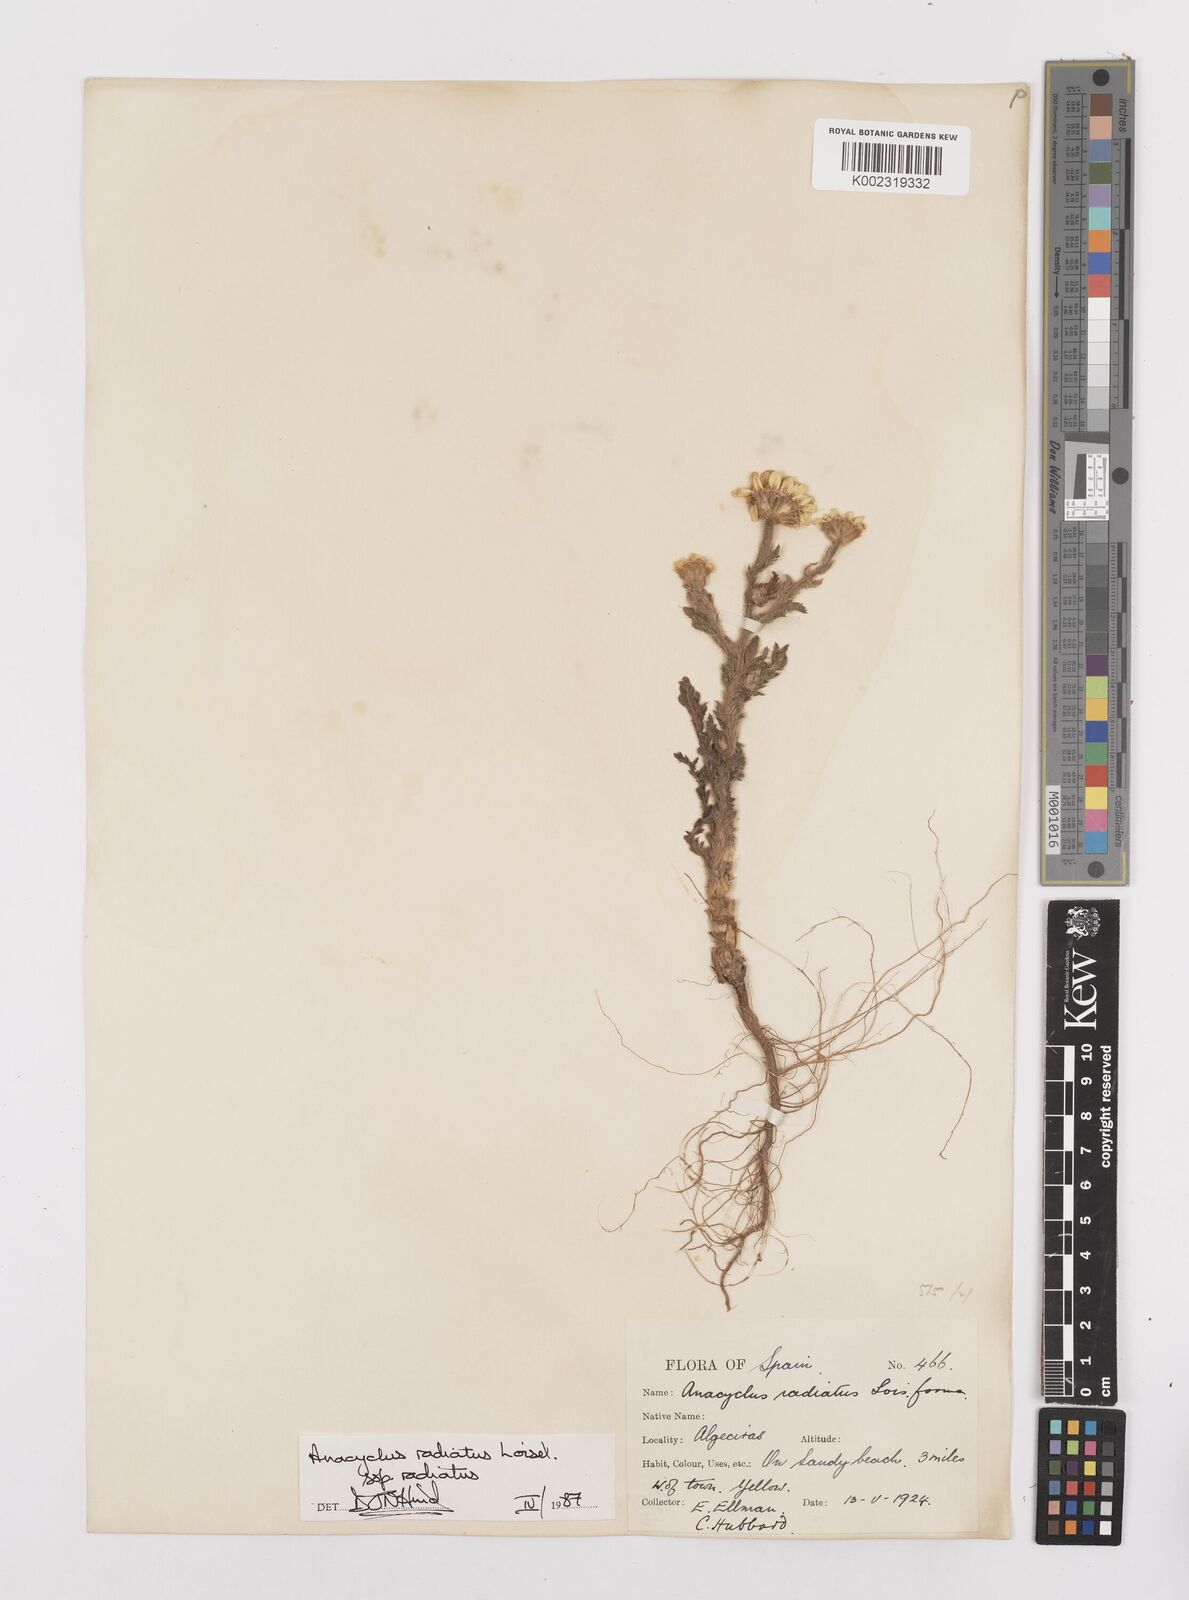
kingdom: Plantae
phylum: Tracheophyta
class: Magnoliopsida
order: Asterales
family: Asteraceae
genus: Anacyclus
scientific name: Anacyclus radiatus
